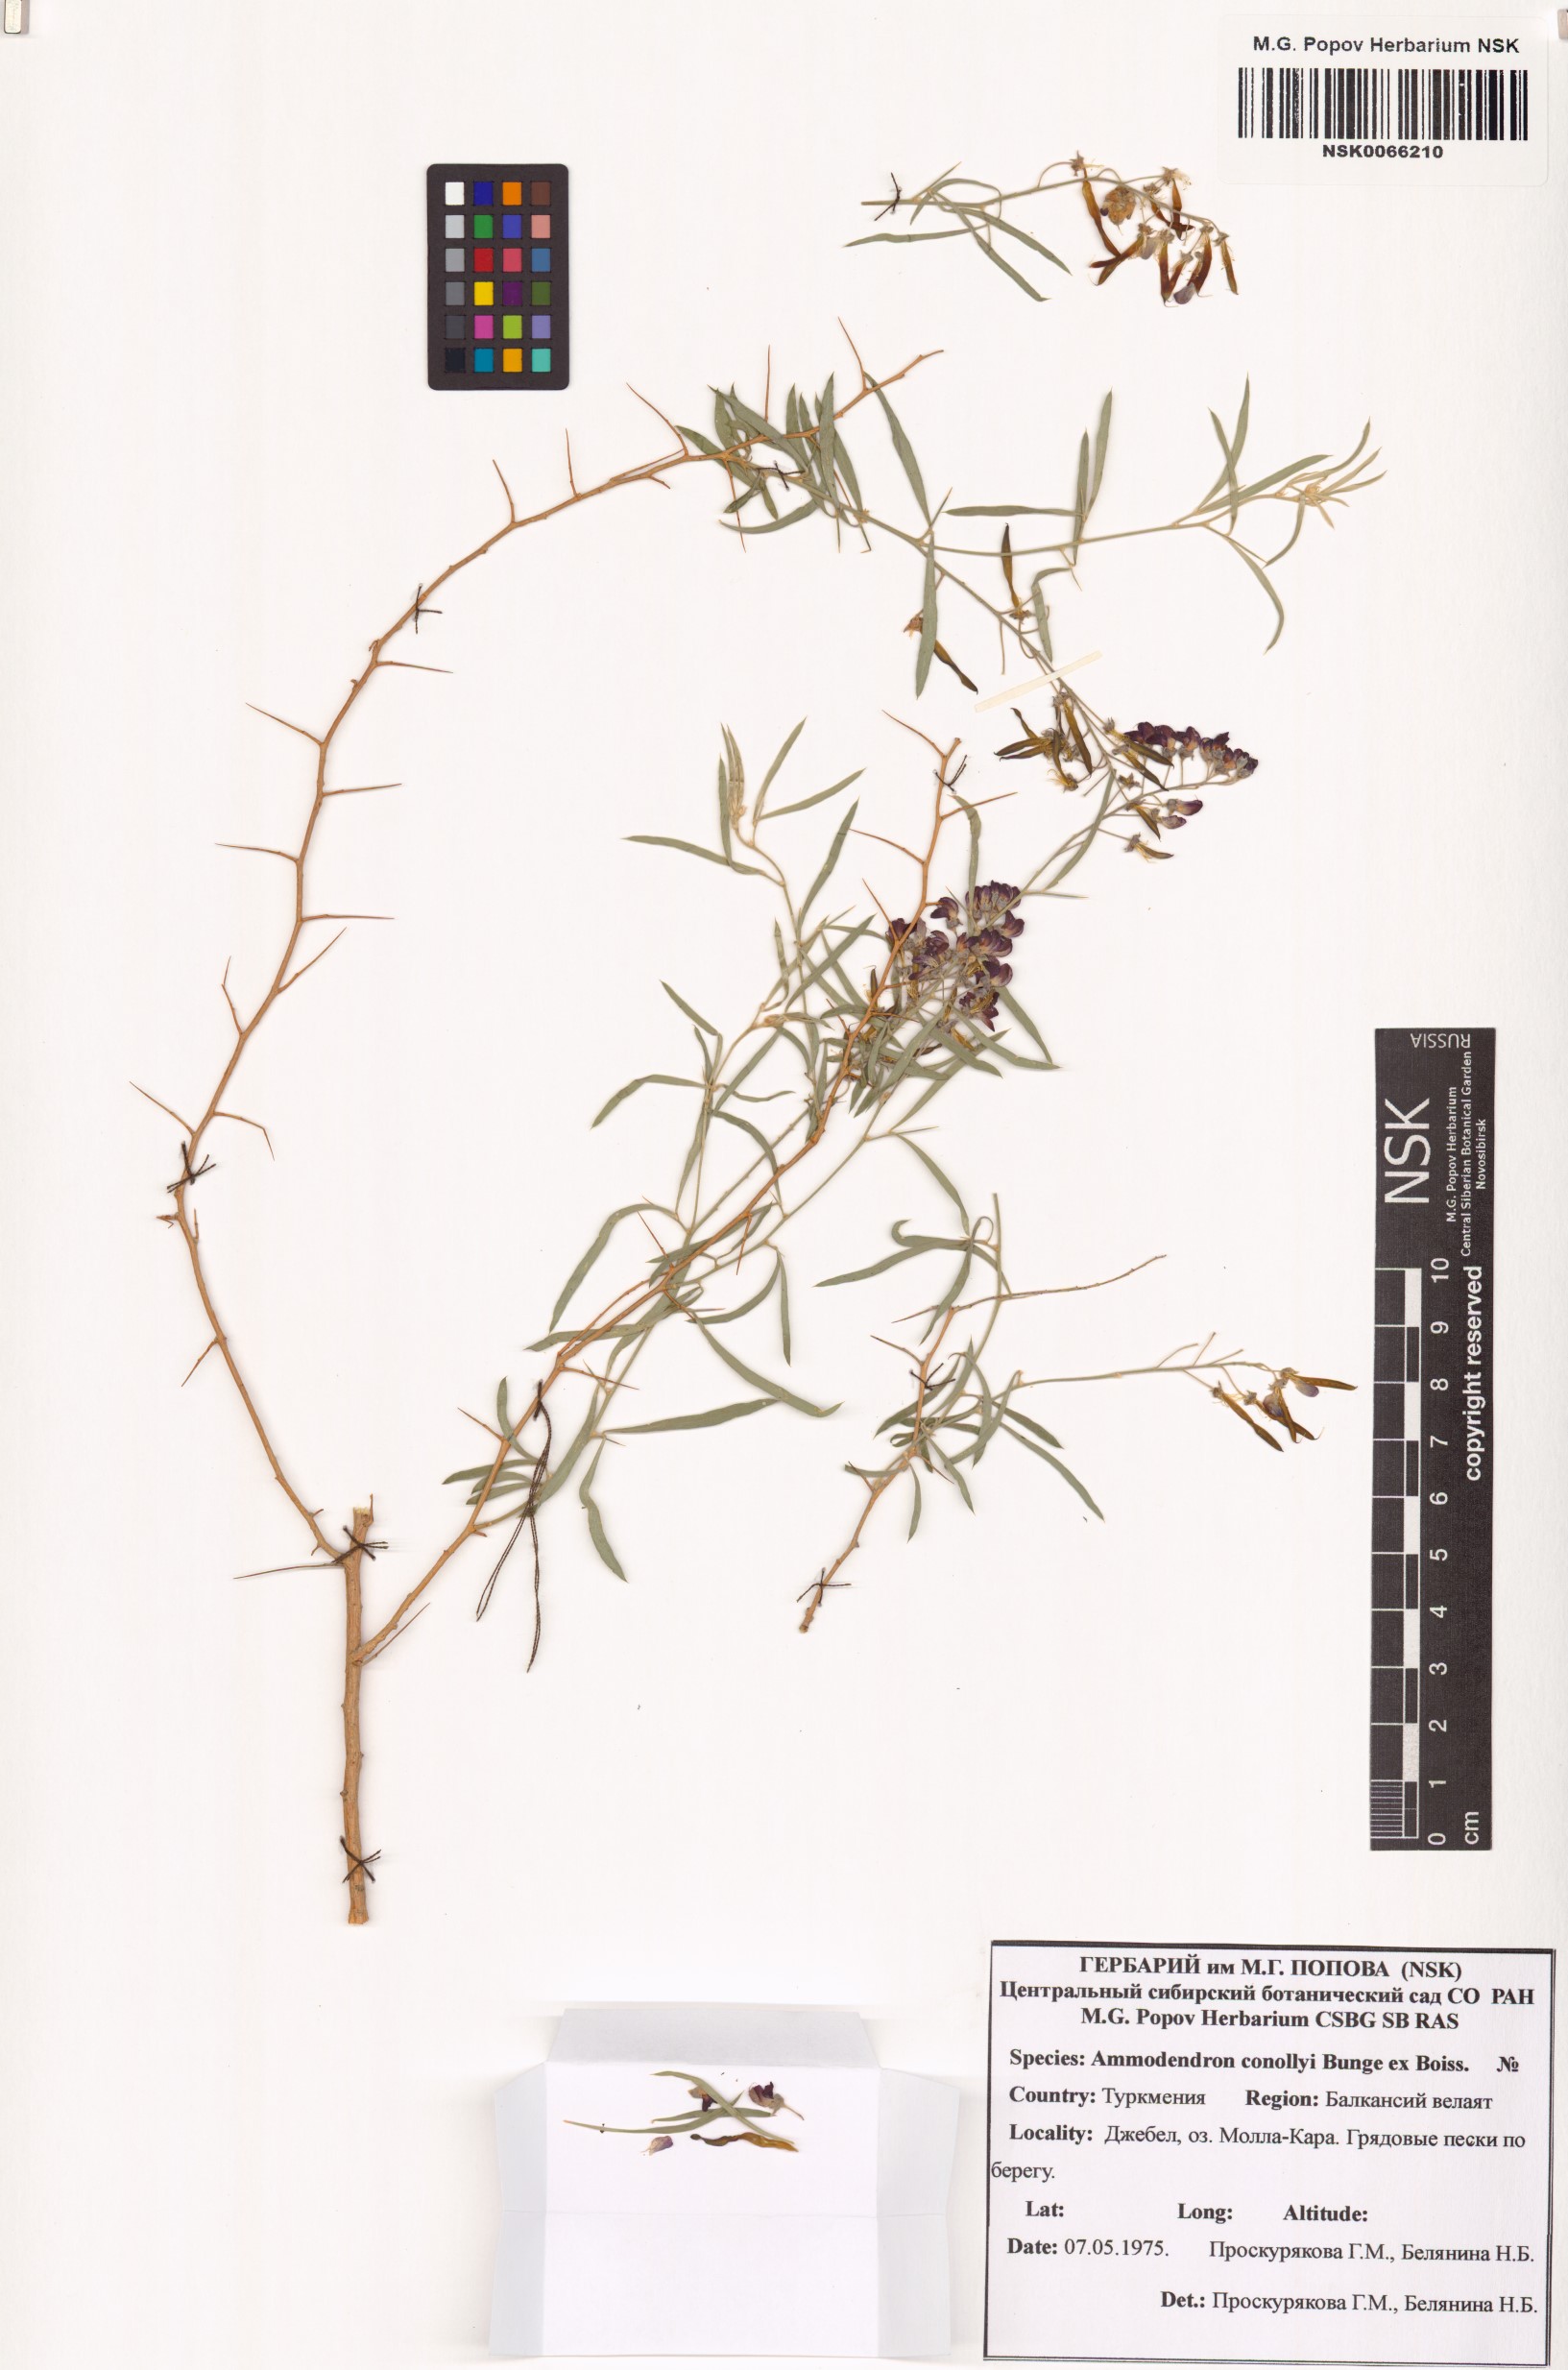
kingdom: Plantae
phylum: Tracheophyta
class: Magnoliopsida
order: Fabales
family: Fabaceae
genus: Ammodendron
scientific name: Ammodendron conollyi
